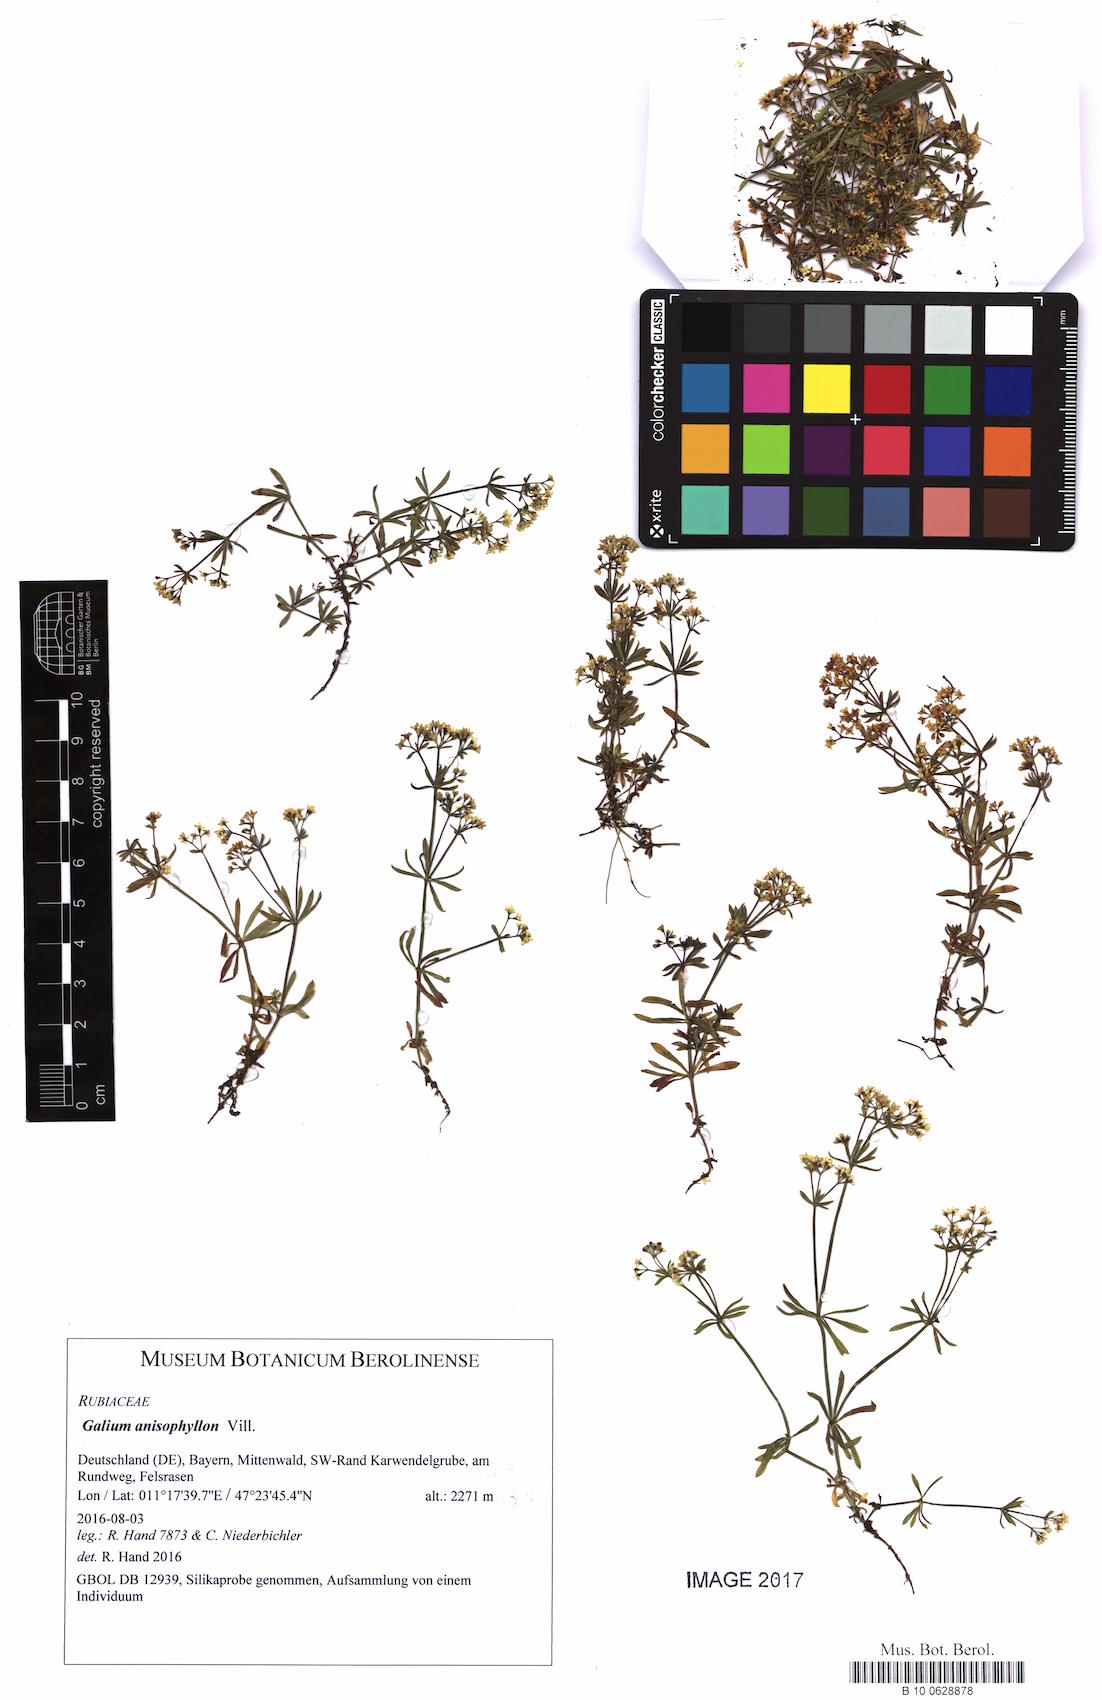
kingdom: Plantae
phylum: Tracheophyta
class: Magnoliopsida
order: Gentianales
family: Rubiaceae
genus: Galium
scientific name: Galium anisophyllon
